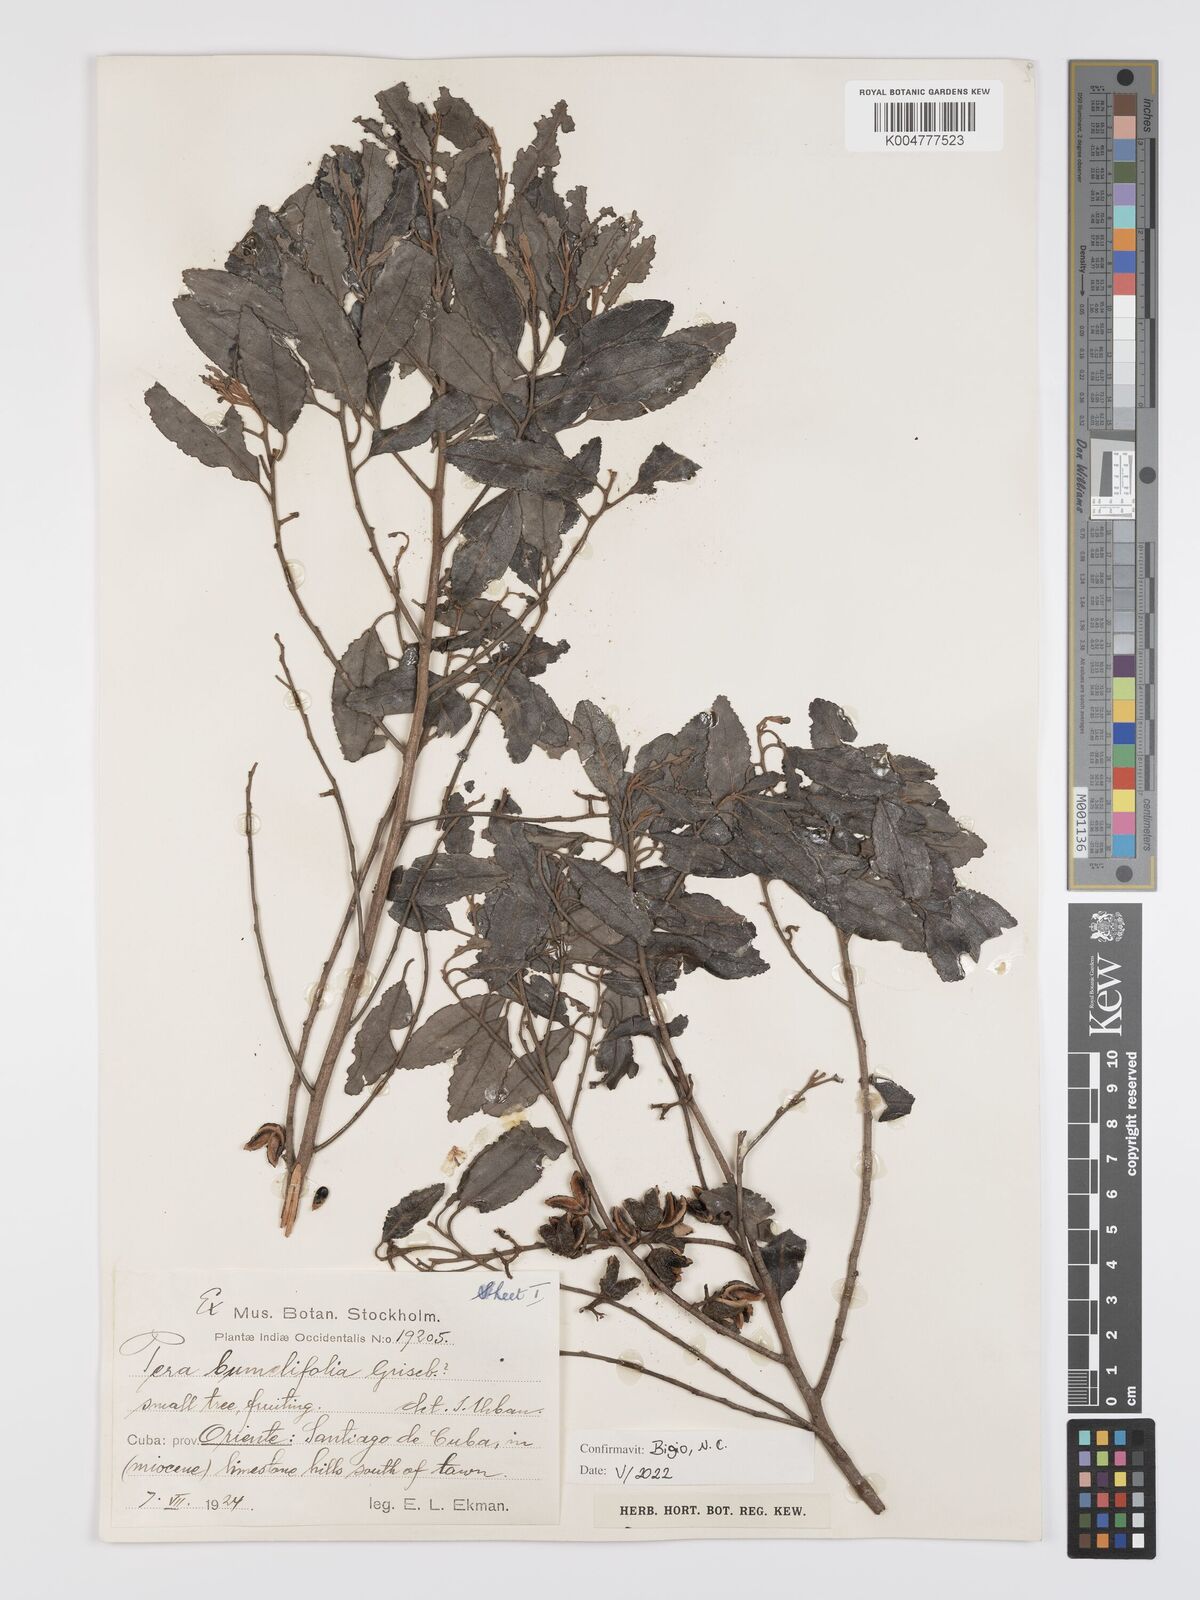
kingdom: Plantae
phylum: Tracheophyta
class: Magnoliopsida
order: Malpighiales
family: Peraceae
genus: Pera
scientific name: Pera
